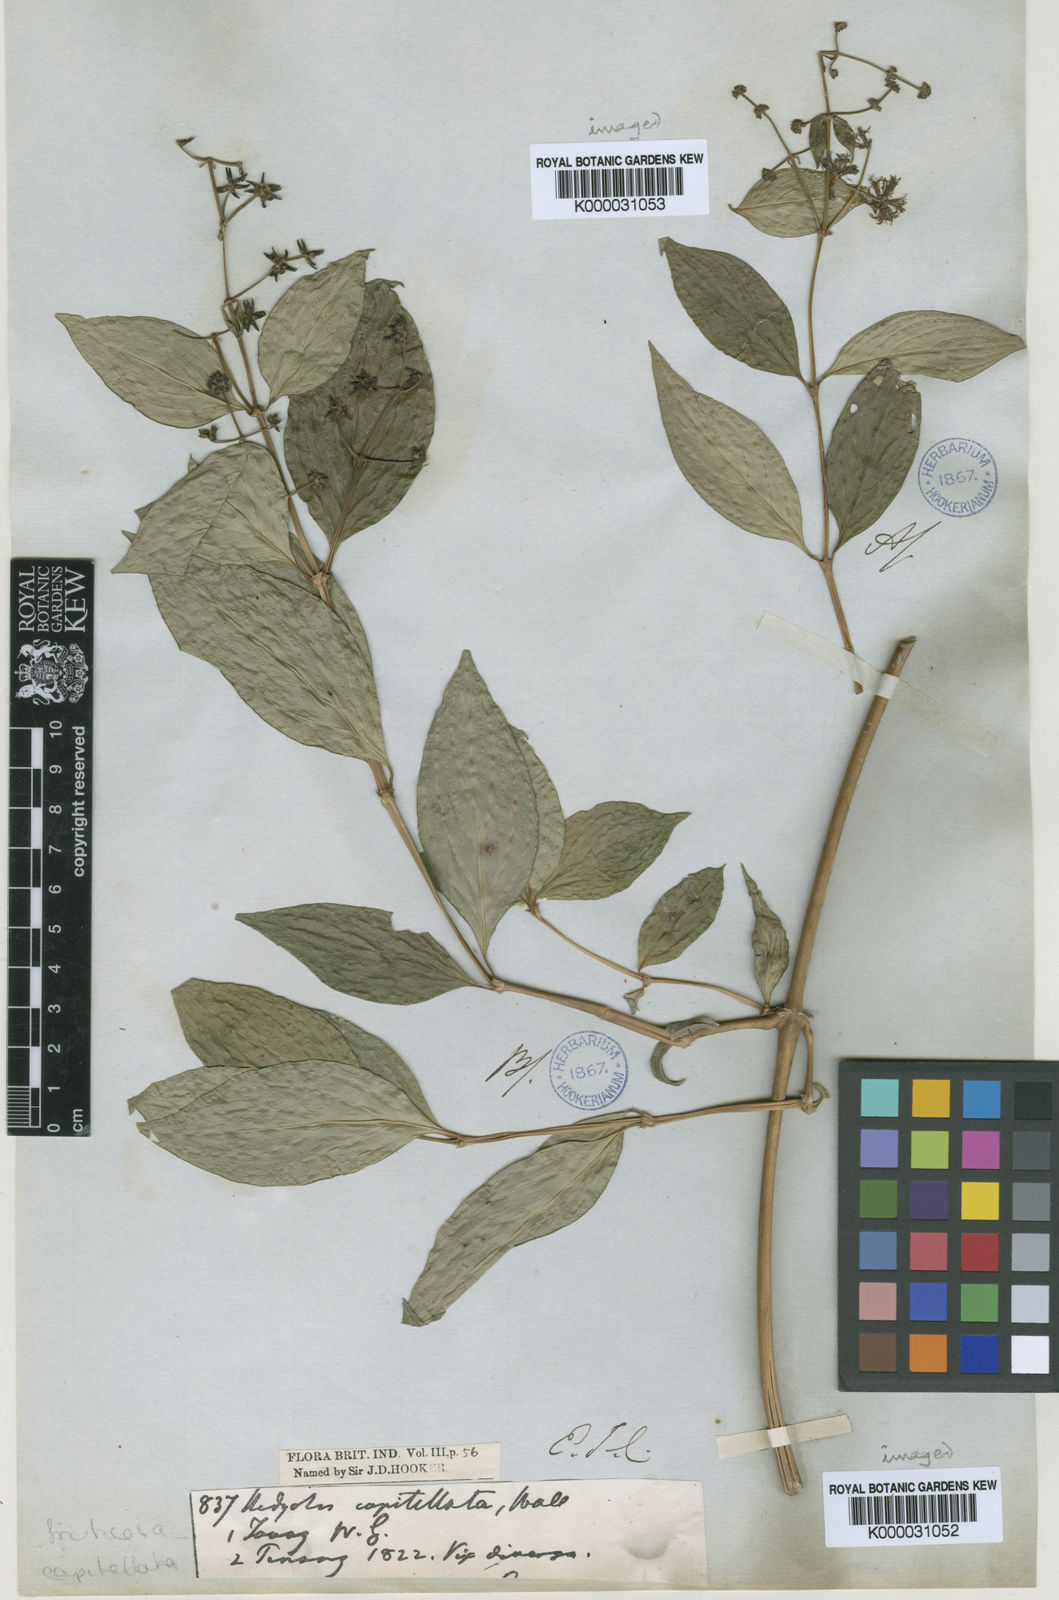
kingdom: Plantae
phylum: Tracheophyta
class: Magnoliopsida
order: Gentianales
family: Rubiaceae
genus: Hedyotis
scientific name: Hedyotis
